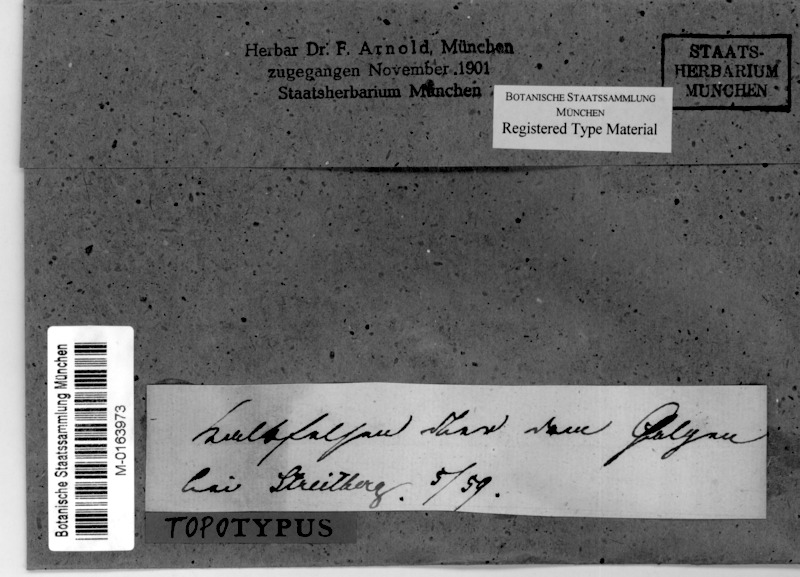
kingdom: Fungi
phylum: Ascomycota
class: Eurotiomycetes
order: Verrucariales
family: Verrucariaceae
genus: Verrucaria
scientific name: Verrucaria murina
